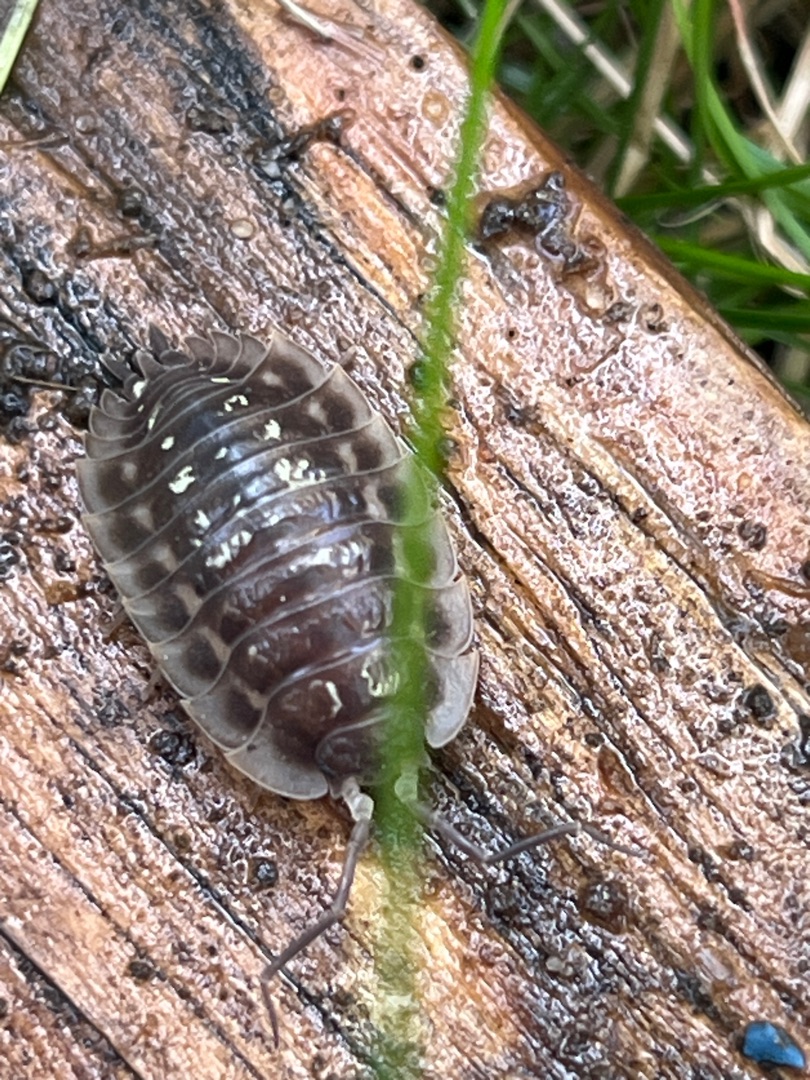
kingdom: Animalia
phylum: Arthropoda
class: Malacostraca
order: Isopoda
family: Oniscidae
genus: Oniscus
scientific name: Oniscus asellus
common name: Glat bænkebider
